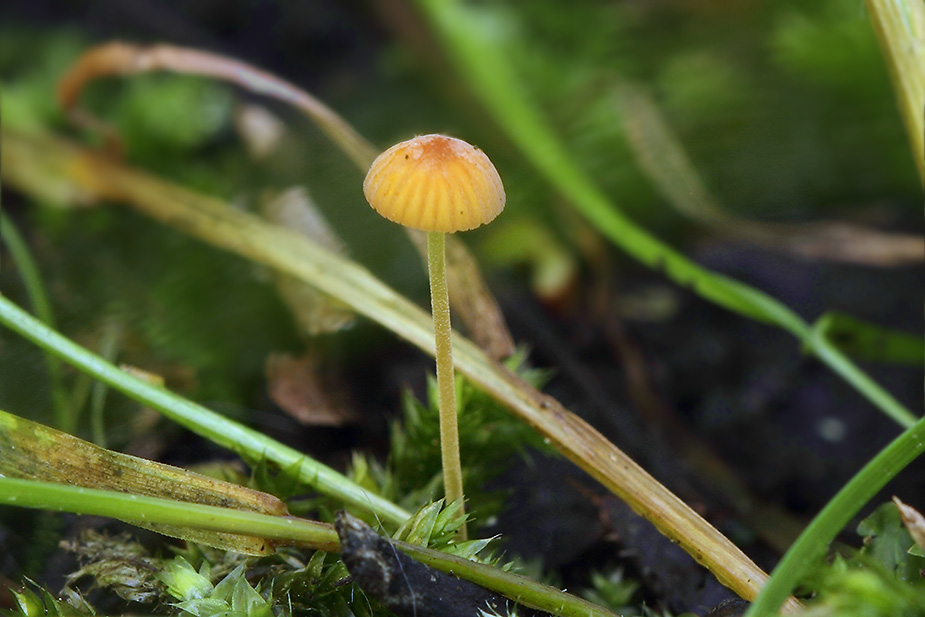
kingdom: Fungi
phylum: Basidiomycota
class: Agaricomycetes
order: Agaricales
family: Mycenaceae
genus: Mycena
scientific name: Mycena acicula
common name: orange huesvamp
